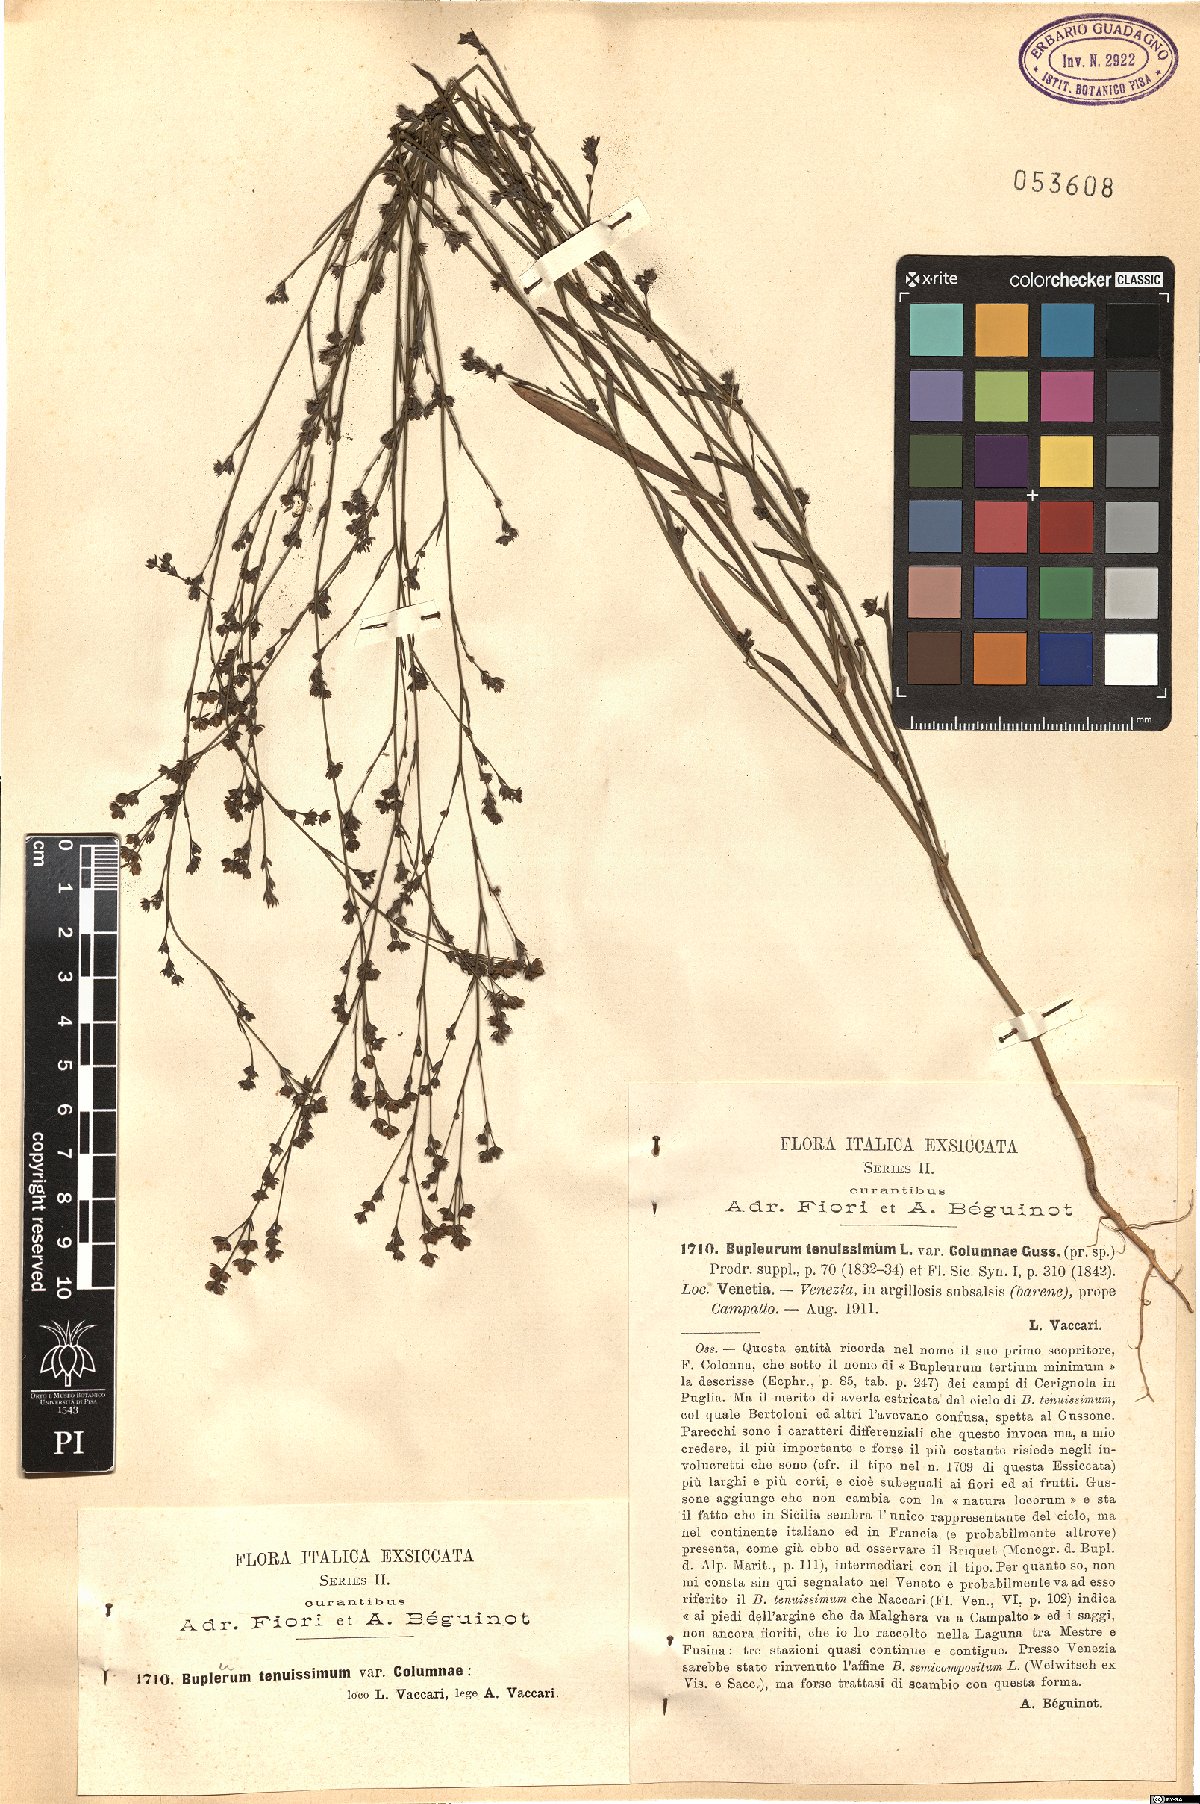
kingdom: Plantae
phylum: Tracheophyta
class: Magnoliopsida
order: Apiales
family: Apiaceae
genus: Bupleurum
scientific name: Bupleurum tenuissimum
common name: Slender hare's-ear
